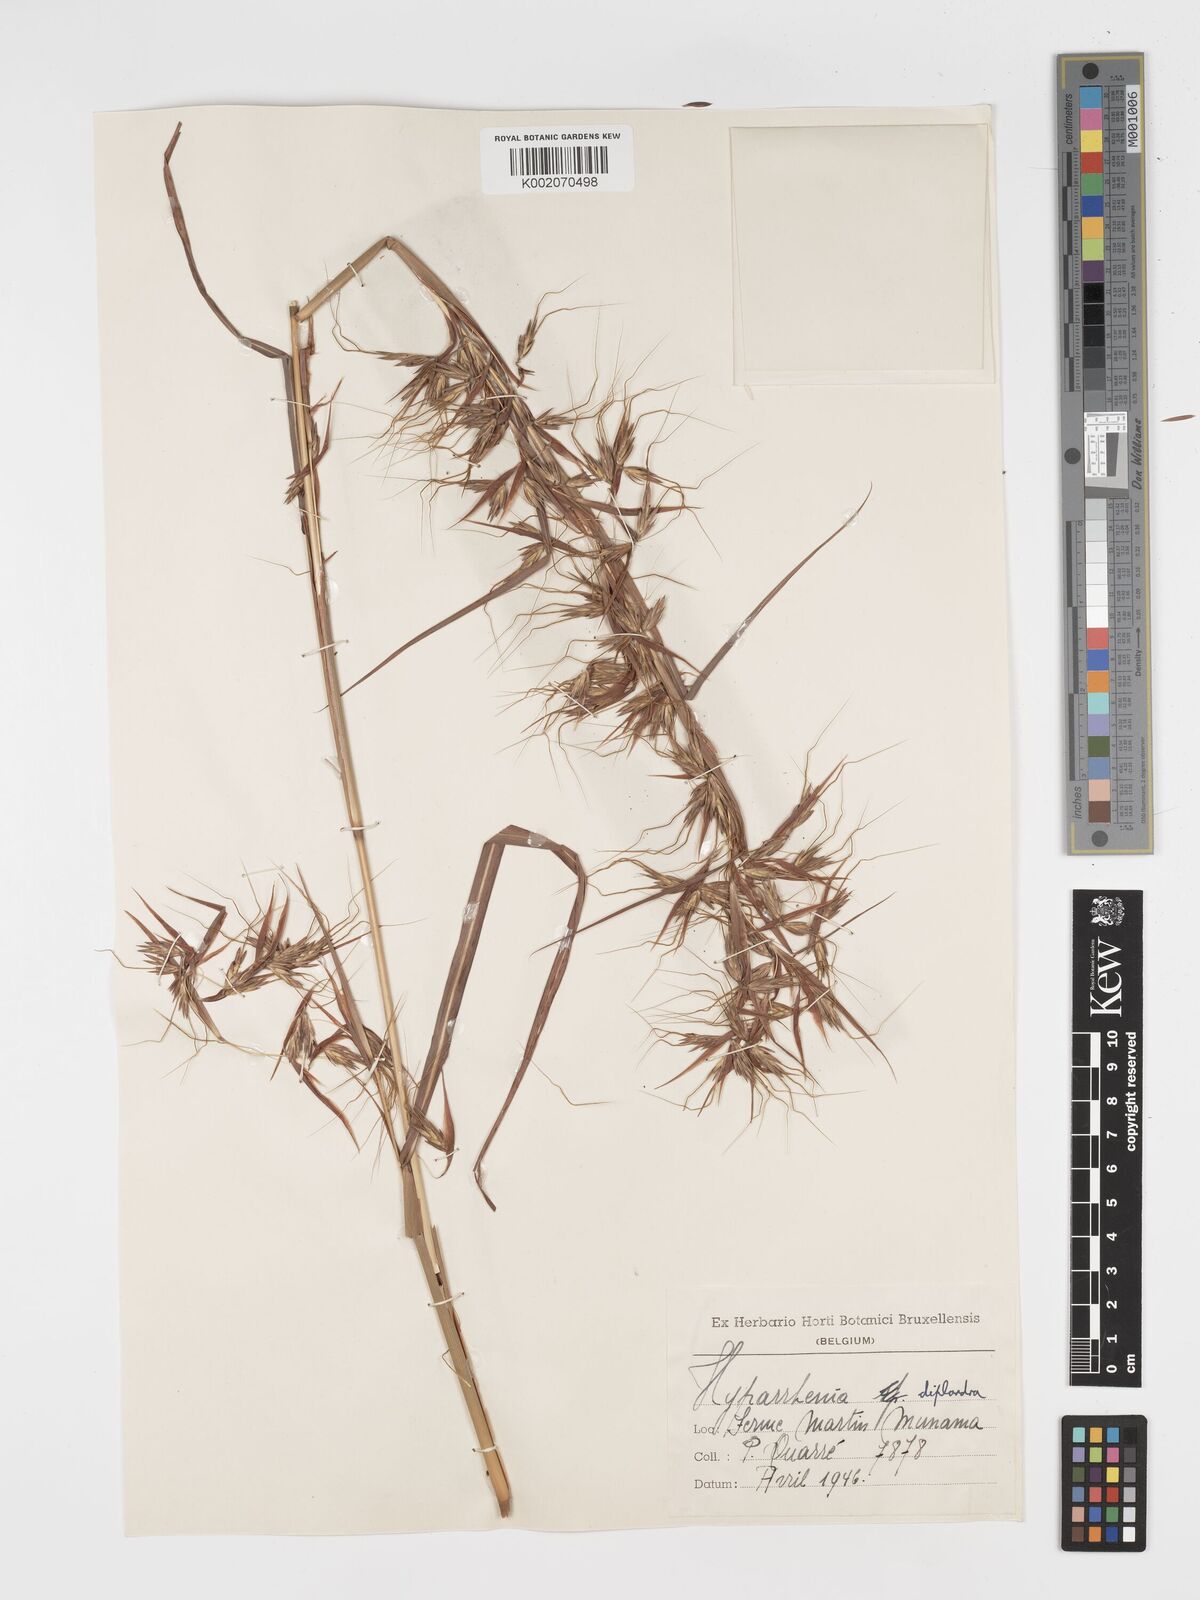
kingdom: Plantae
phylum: Tracheophyta
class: Liliopsida
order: Poales
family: Poaceae
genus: Hyparrhenia
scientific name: Hyparrhenia diplandra
